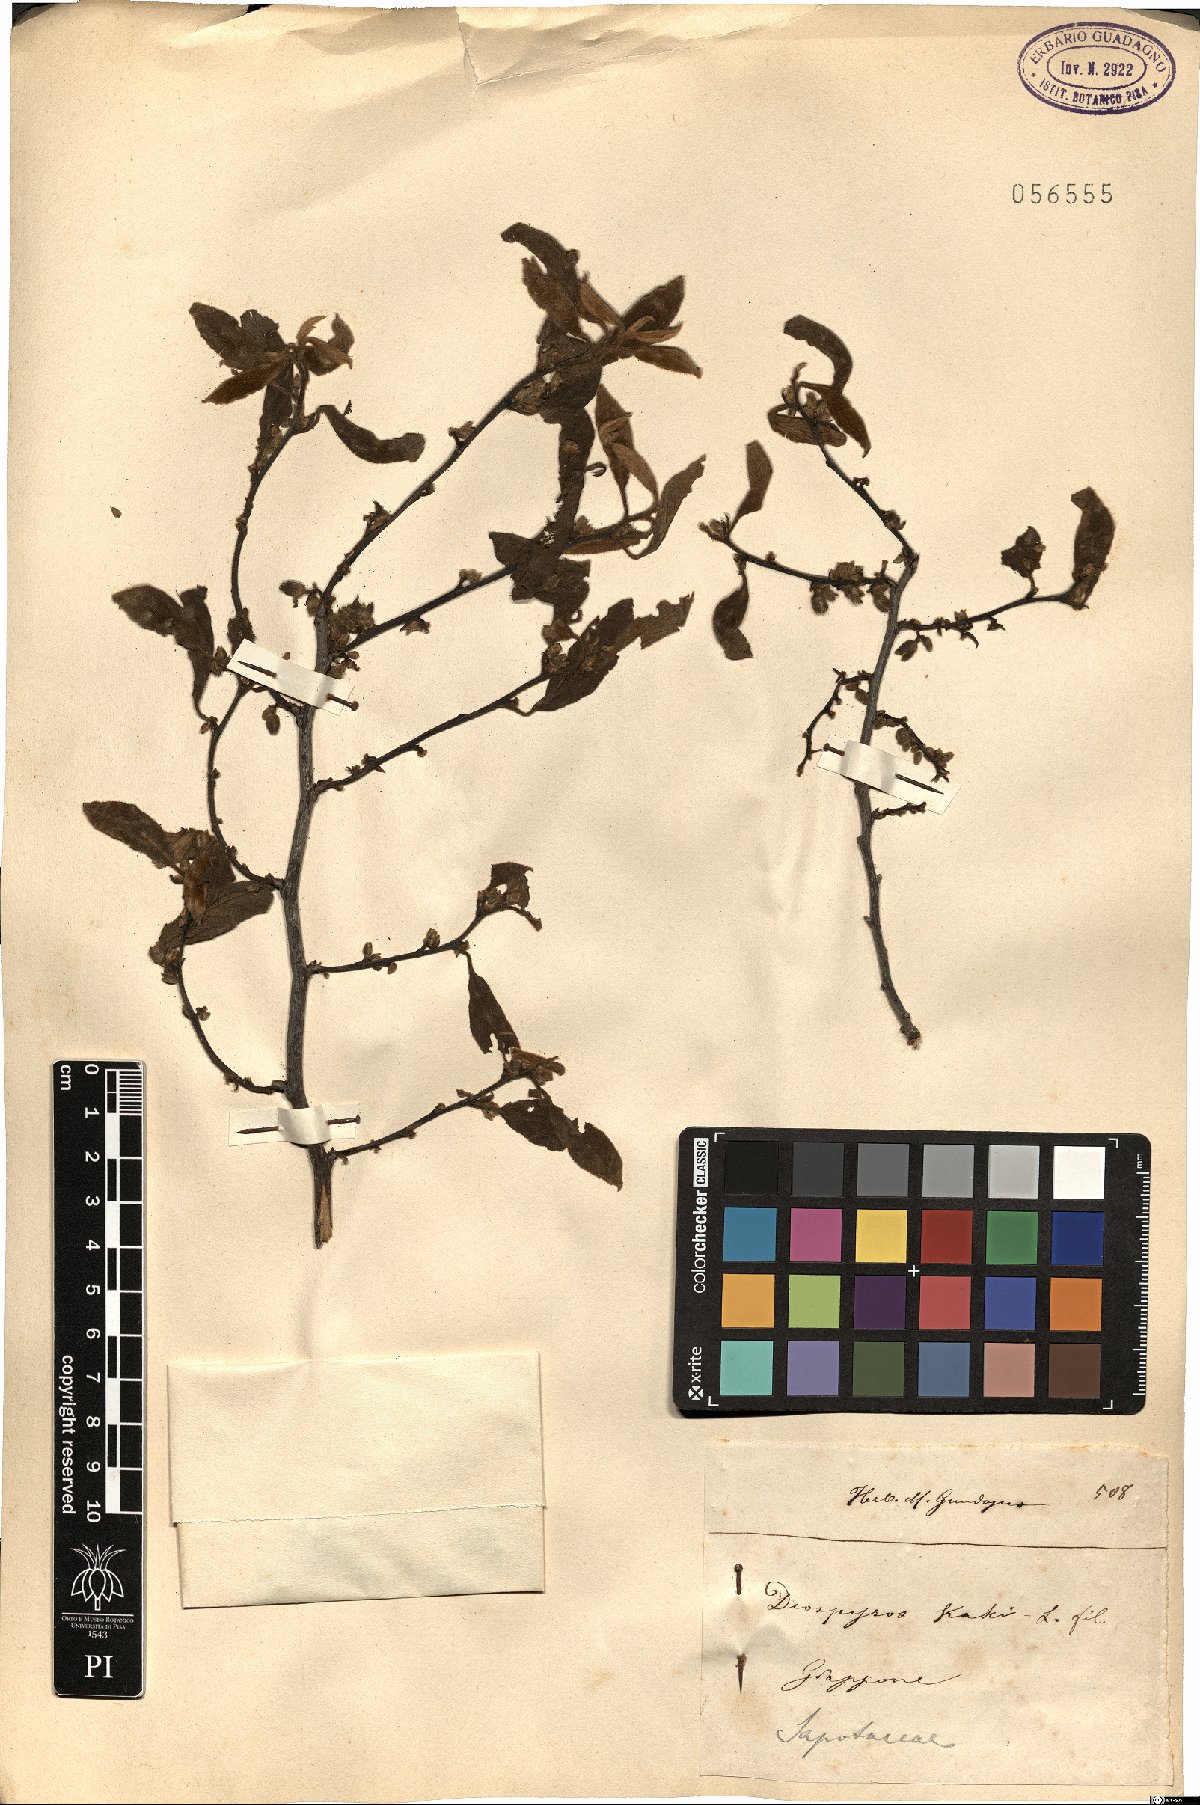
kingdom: Plantae
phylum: Tracheophyta
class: Magnoliopsida
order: Ericales
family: Ebenaceae
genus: Diospyros
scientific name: Diospyros kaki
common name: Persimmon
